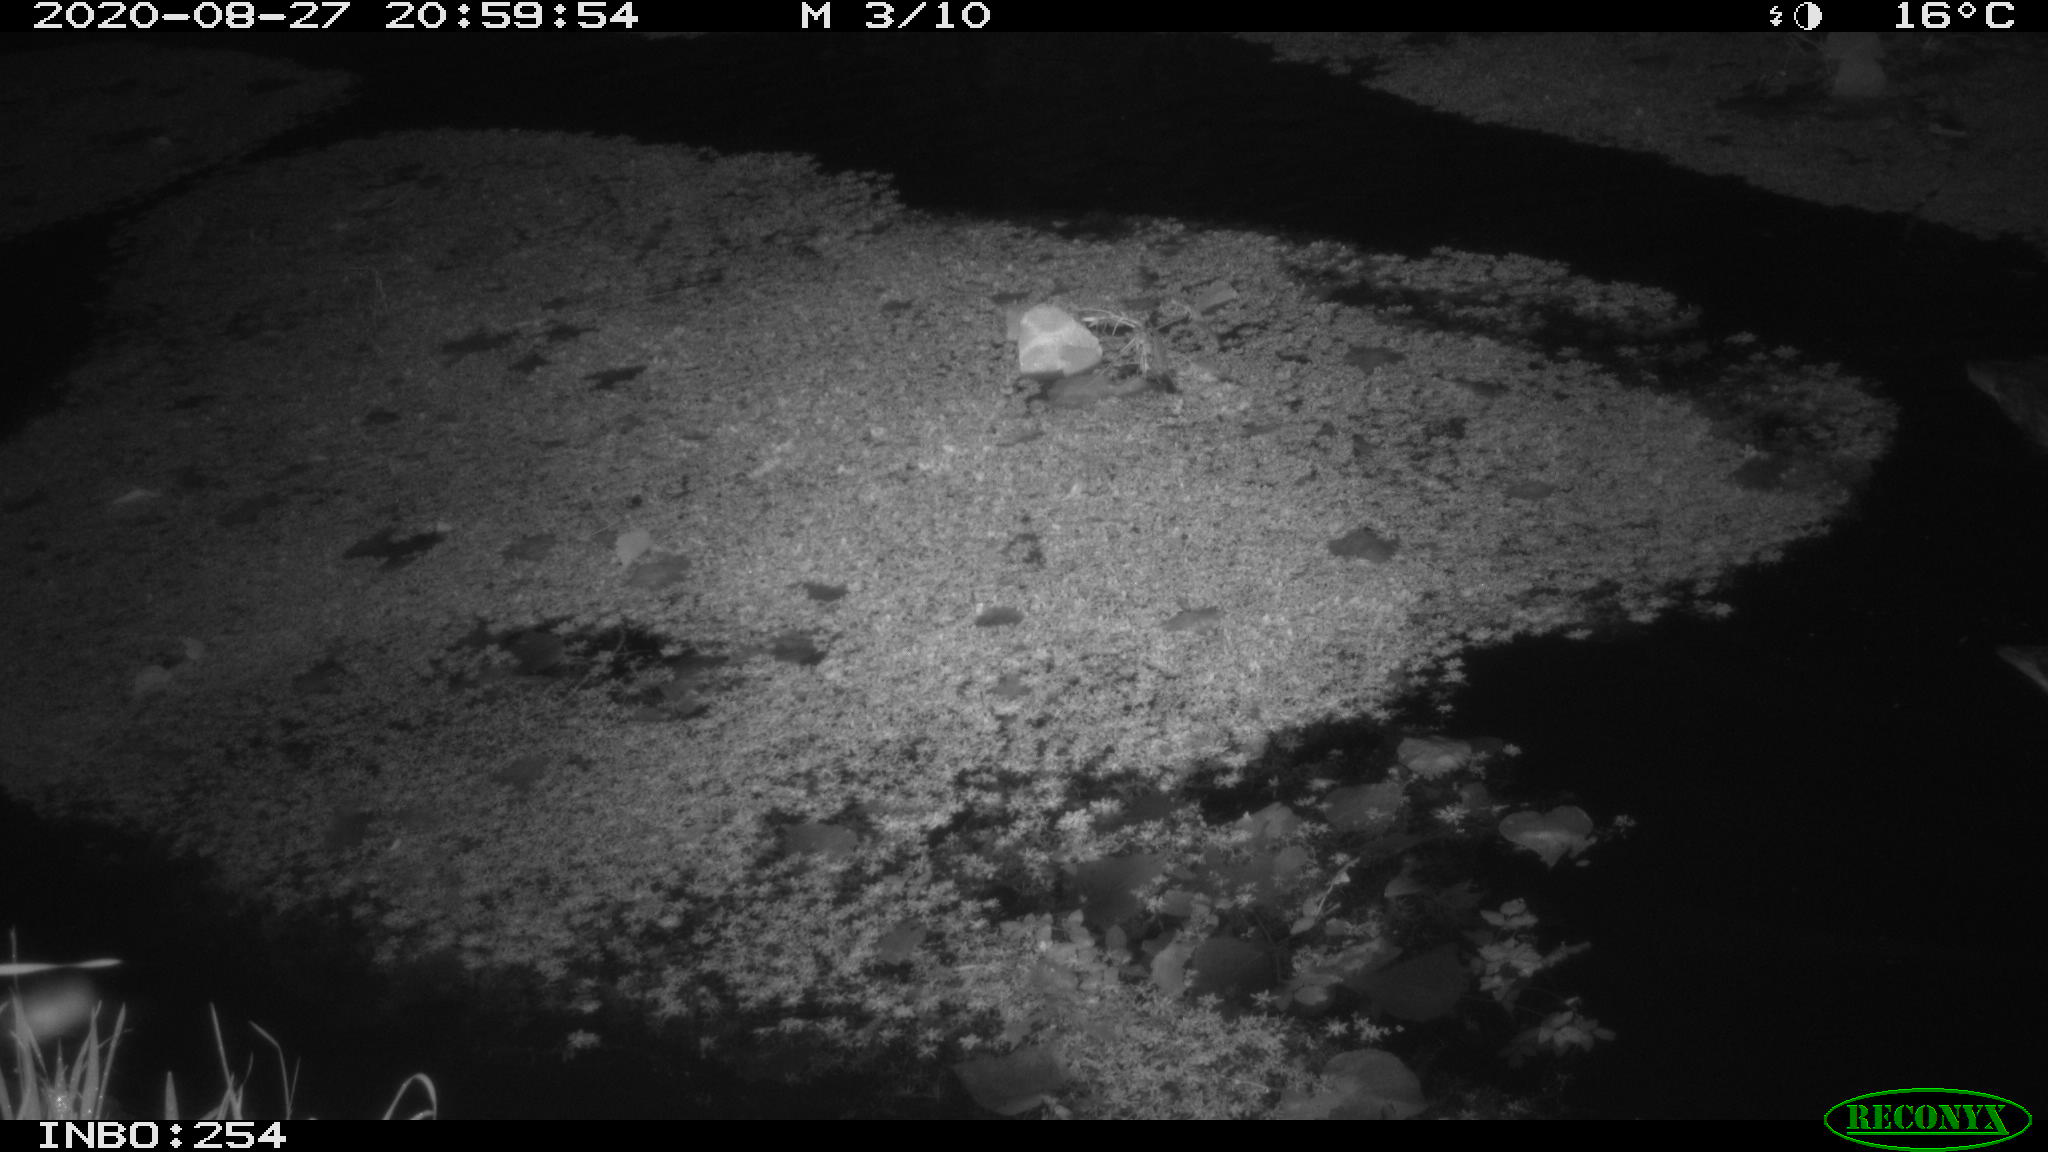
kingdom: Animalia
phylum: Chordata
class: Aves
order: Anseriformes
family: Anatidae
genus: Anas
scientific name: Anas platyrhynchos
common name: Mallard
